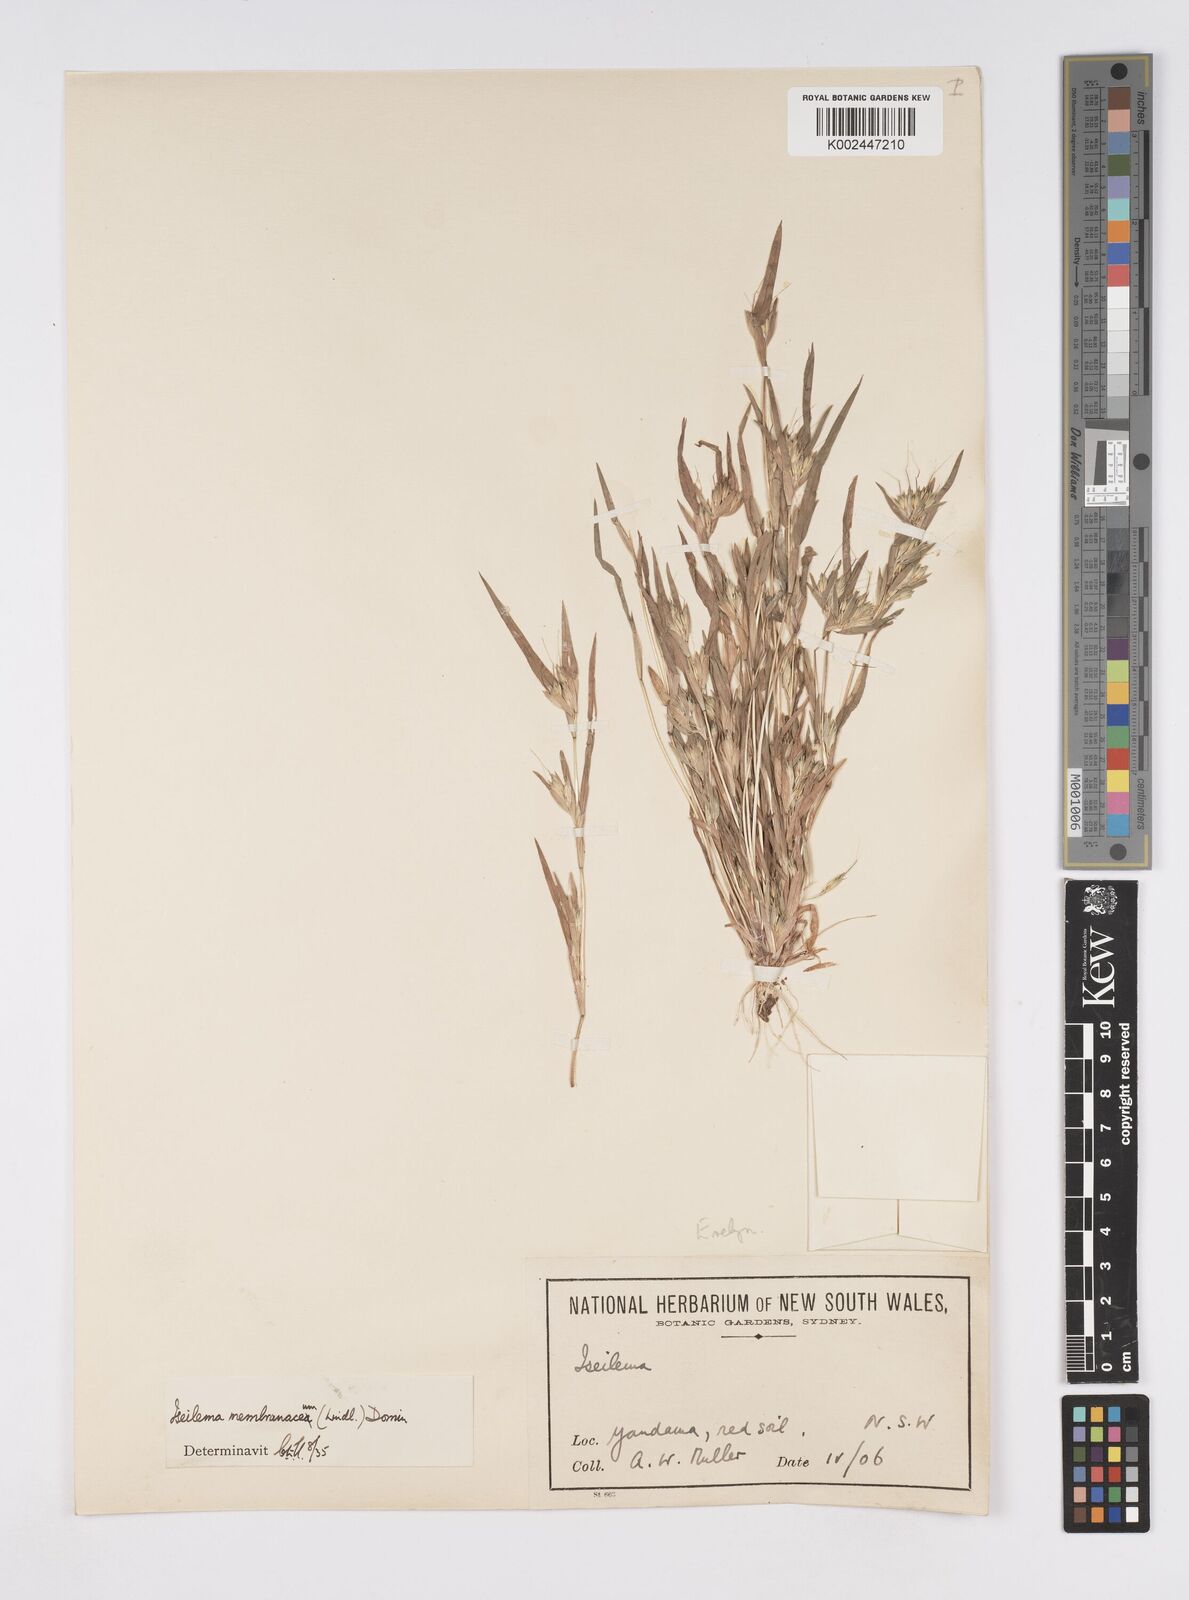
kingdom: Plantae
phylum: Tracheophyta
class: Liliopsida
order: Poales
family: Poaceae
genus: Iseilema
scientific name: Iseilema membranaceum
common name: Small flinders grass
